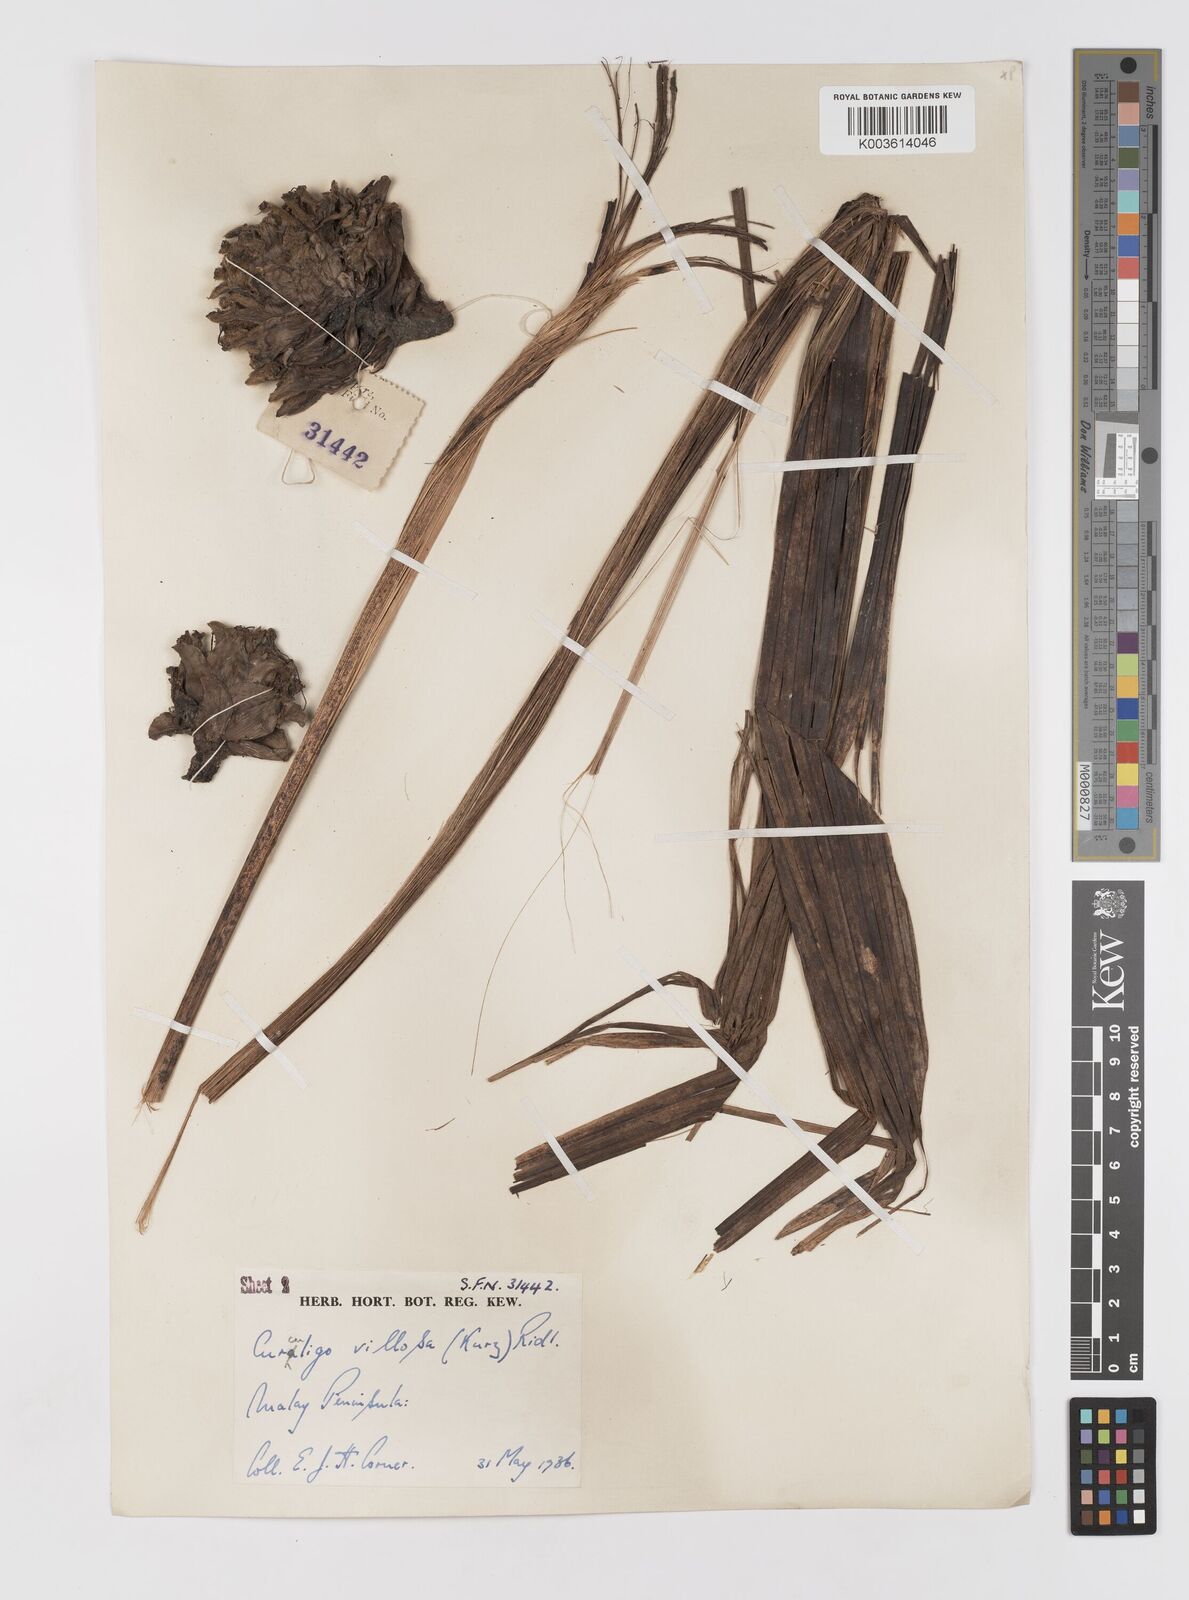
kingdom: Plantae
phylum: Tracheophyta
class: Liliopsida
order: Asparagales
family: Hypoxidaceae
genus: Curculigo
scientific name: Curculigo
